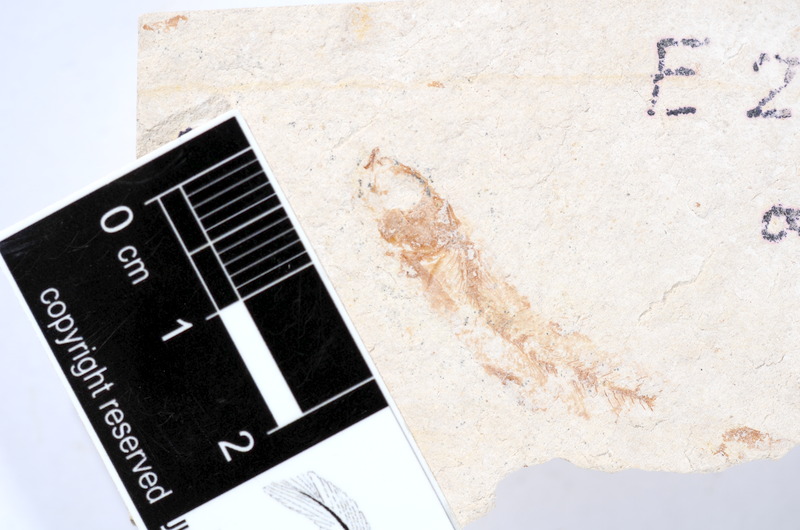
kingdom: Animalia
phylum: Chordata
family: Ascalaboidae
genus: Tharsis
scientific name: Tharsis dubius
